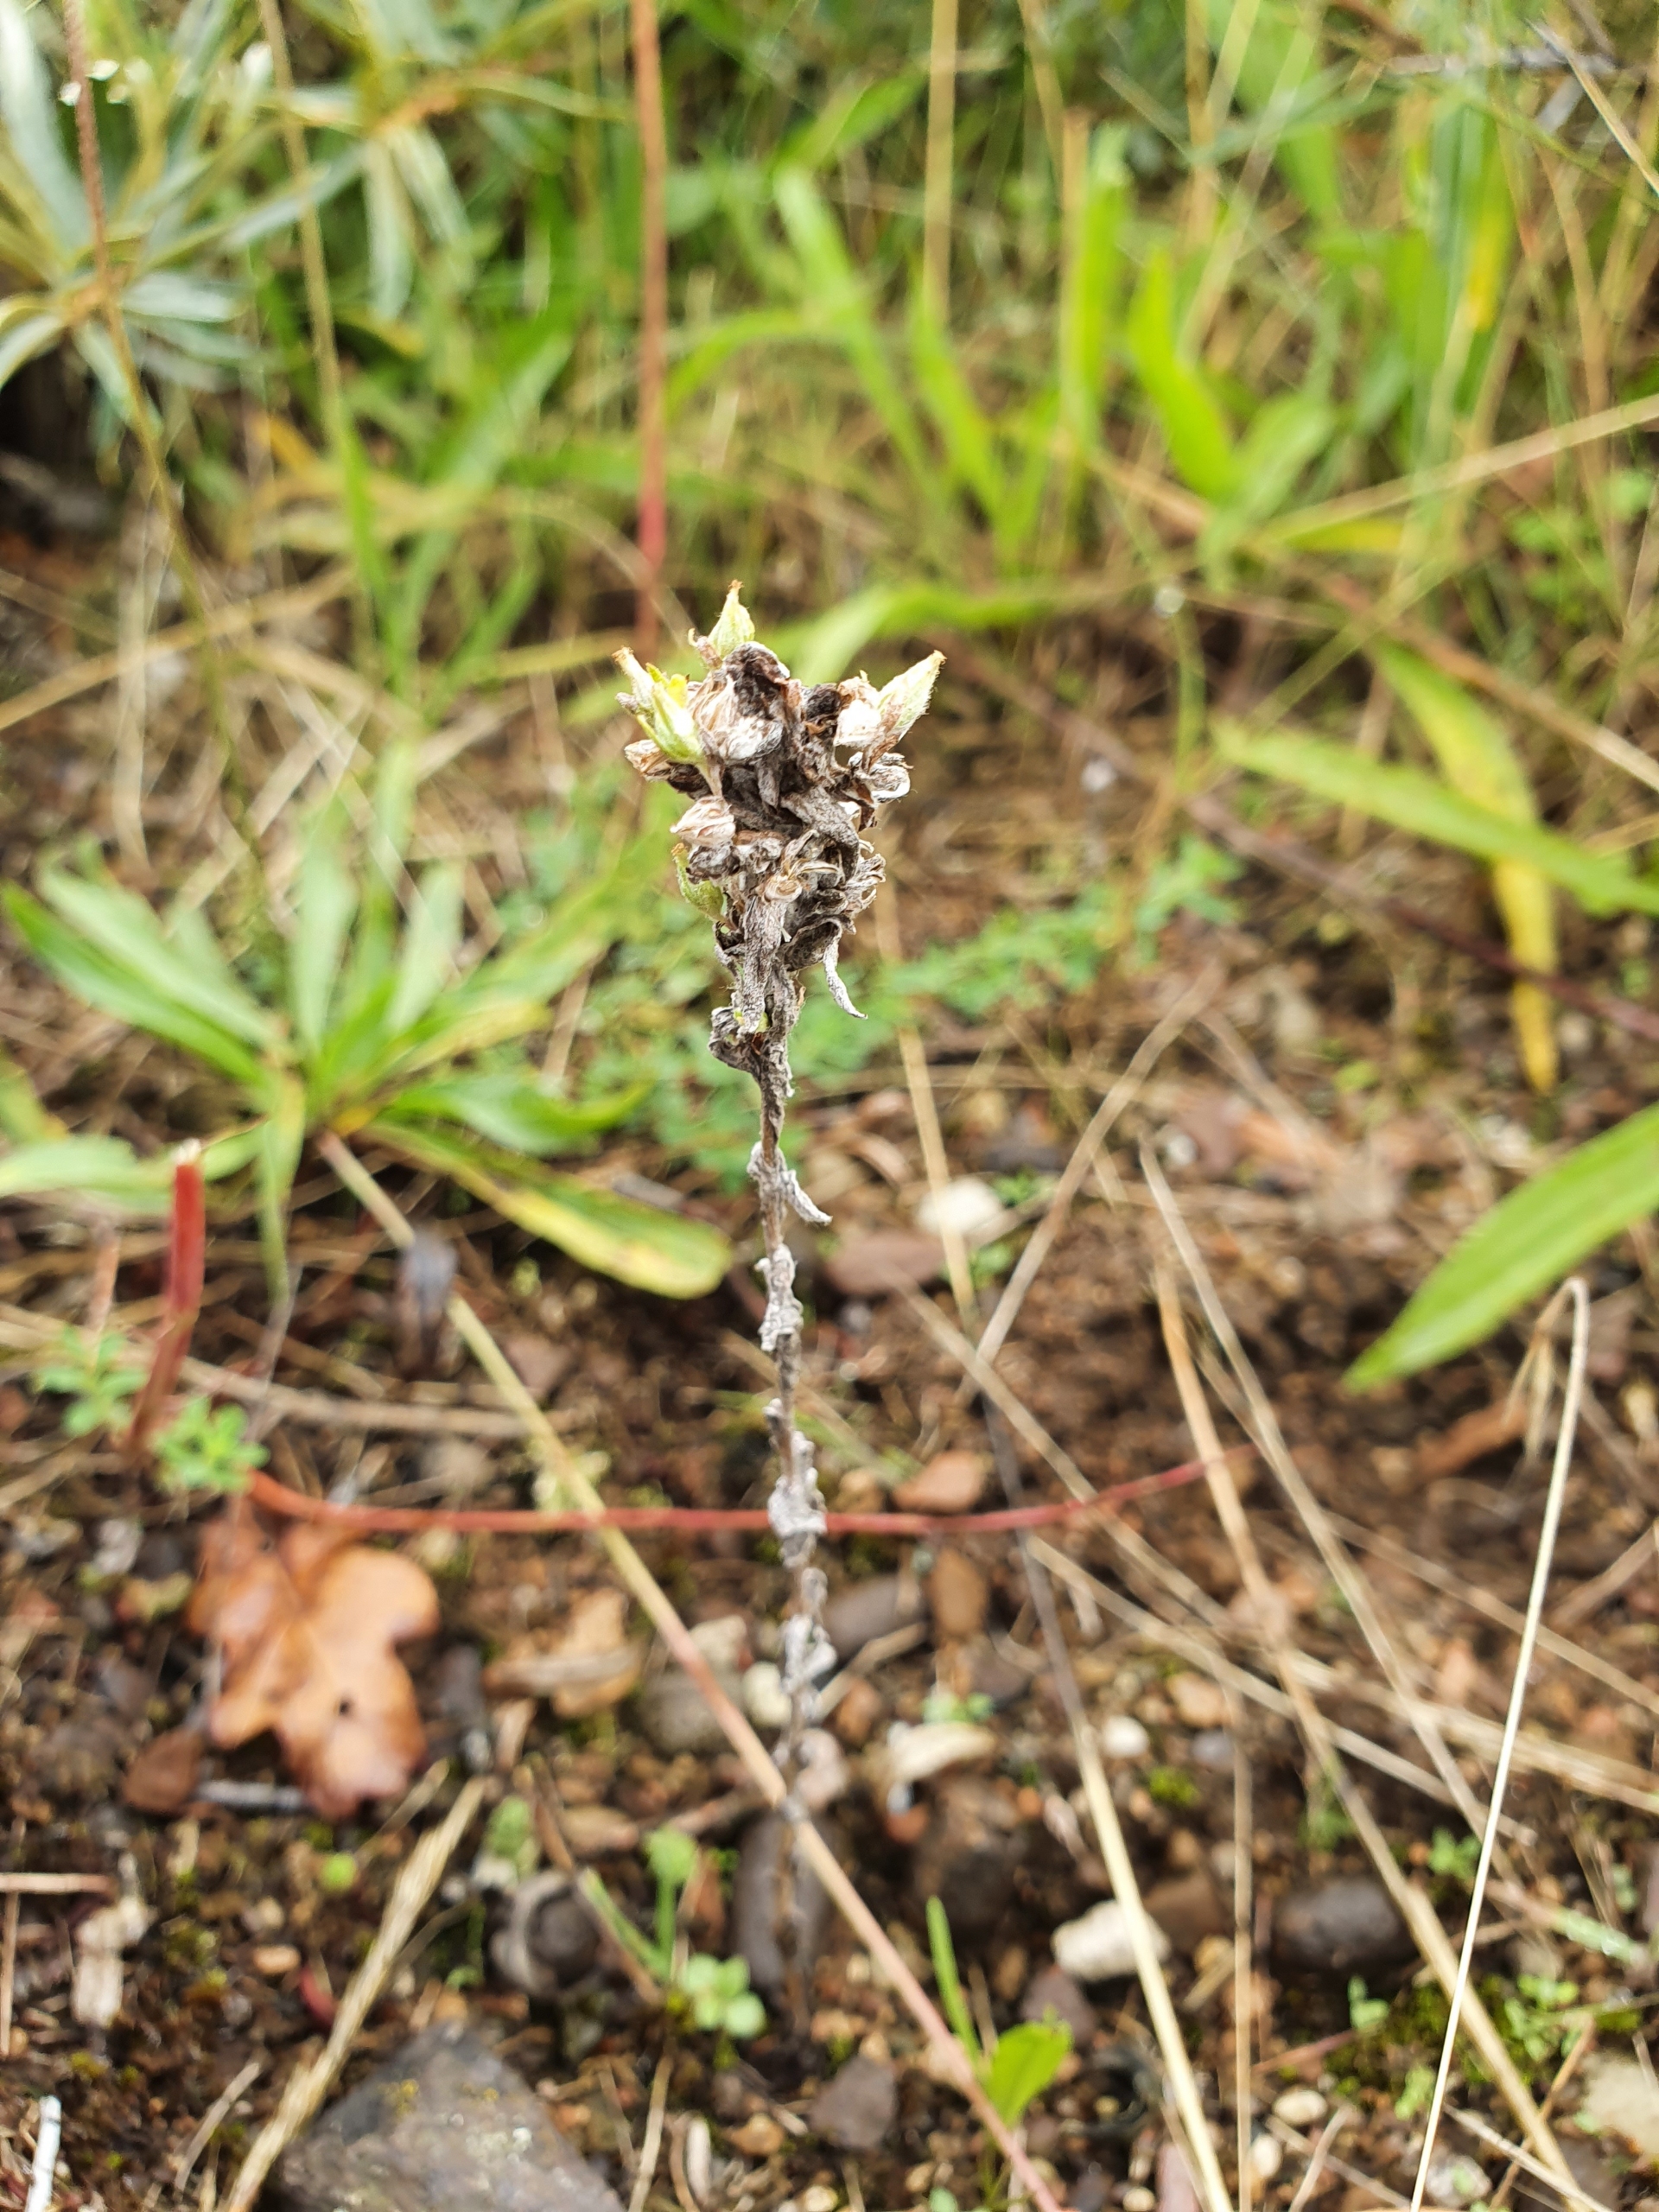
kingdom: Plantae
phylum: Tracheophyta
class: Magnoliopsida
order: Asterales
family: Asteraceae
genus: Filago
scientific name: Filago arvensis
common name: Ager-museurt
